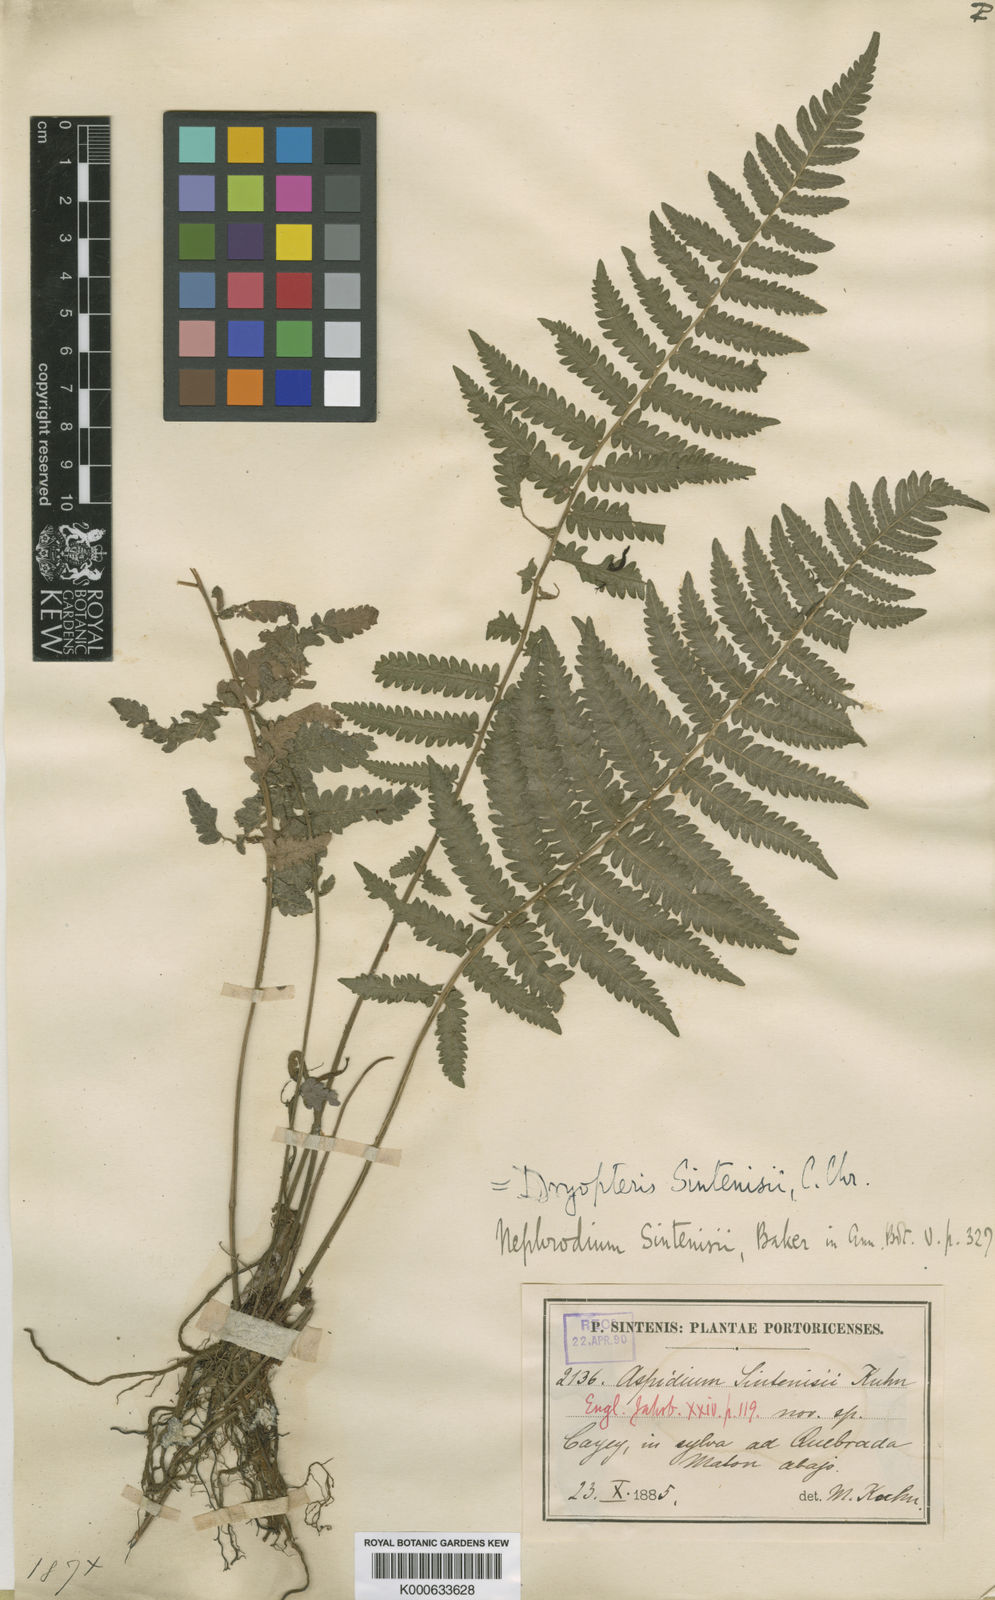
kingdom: Plantae
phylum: Tracheophyta
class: Polypodiopsida
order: Polypodiales
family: Thelypteridaceae
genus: Goniopteris
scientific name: Goniopteris
